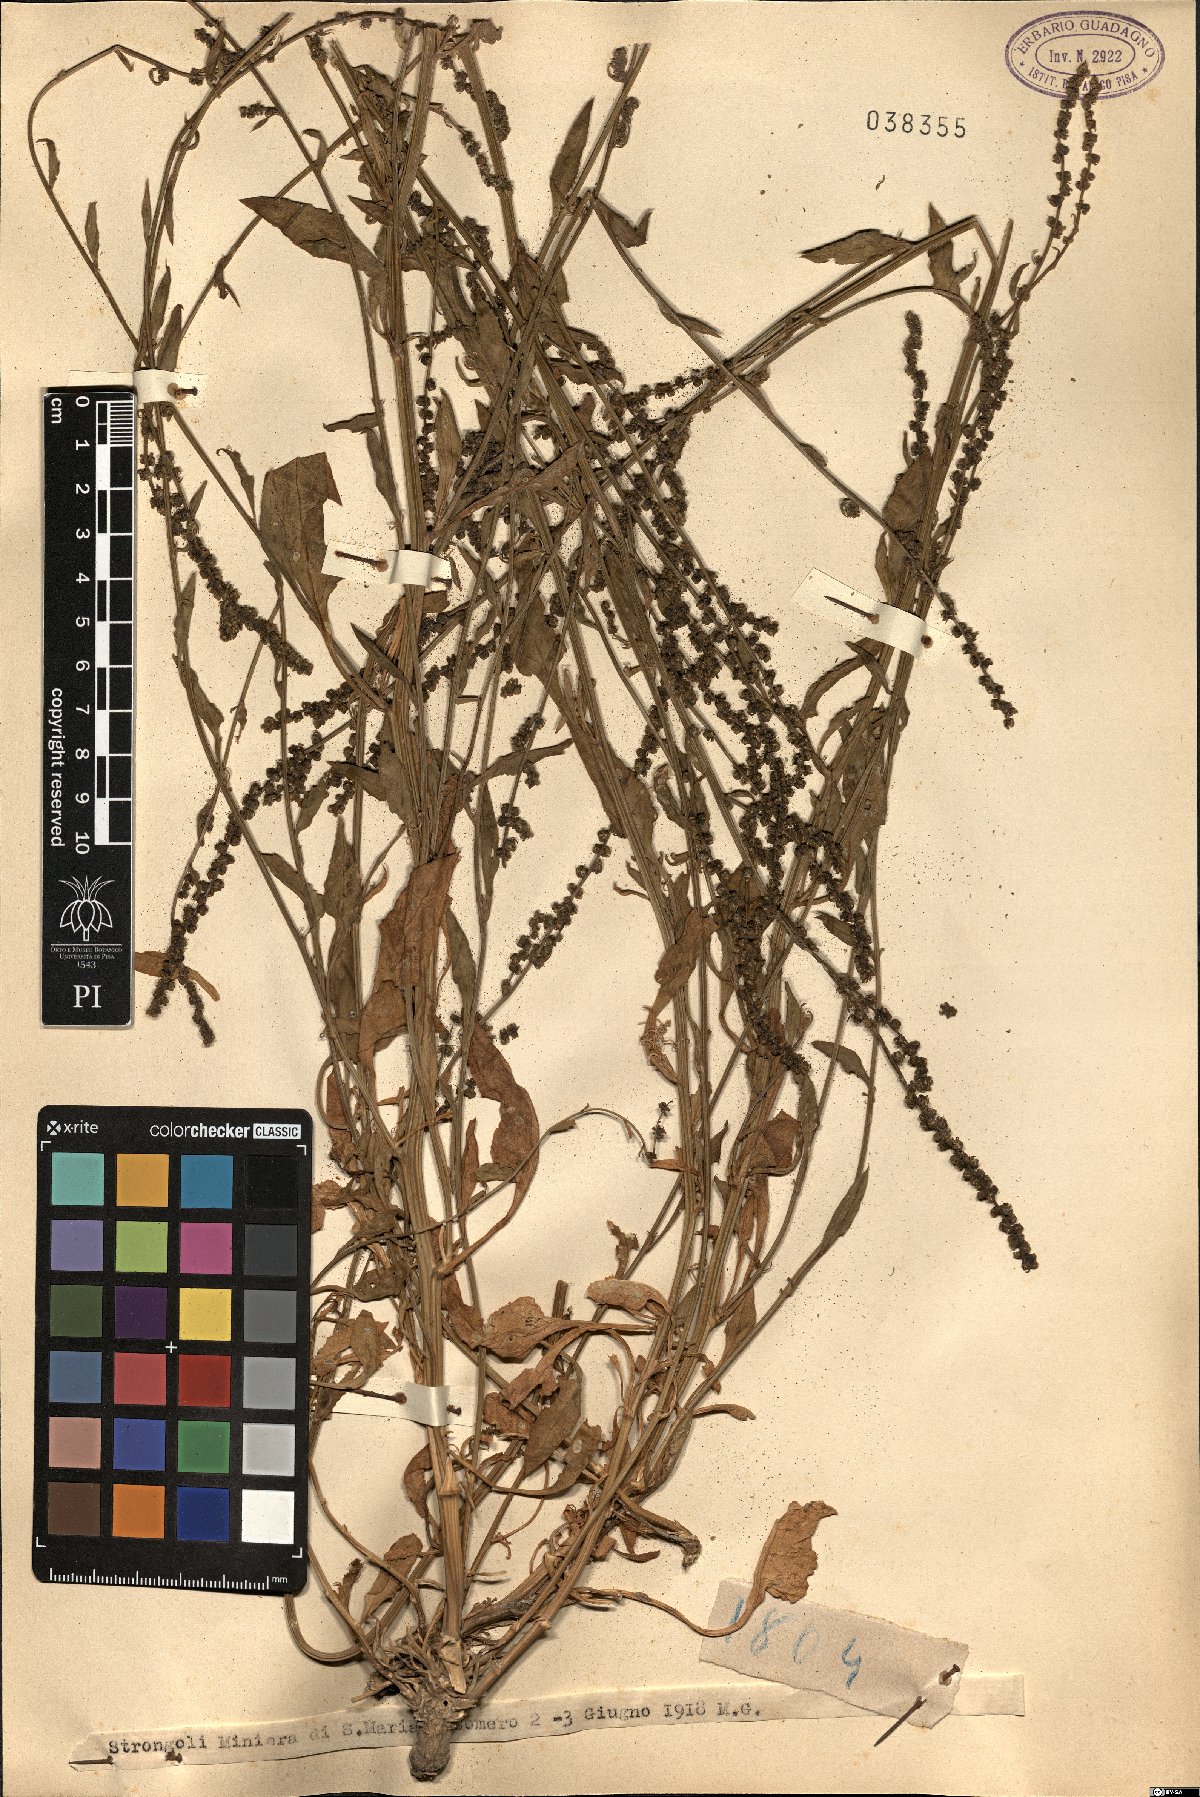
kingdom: Plantae
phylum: Tracheophyta
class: Magnoliopsida
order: Caryophyllales
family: Amaranthaceae
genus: Beta
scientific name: Beta
